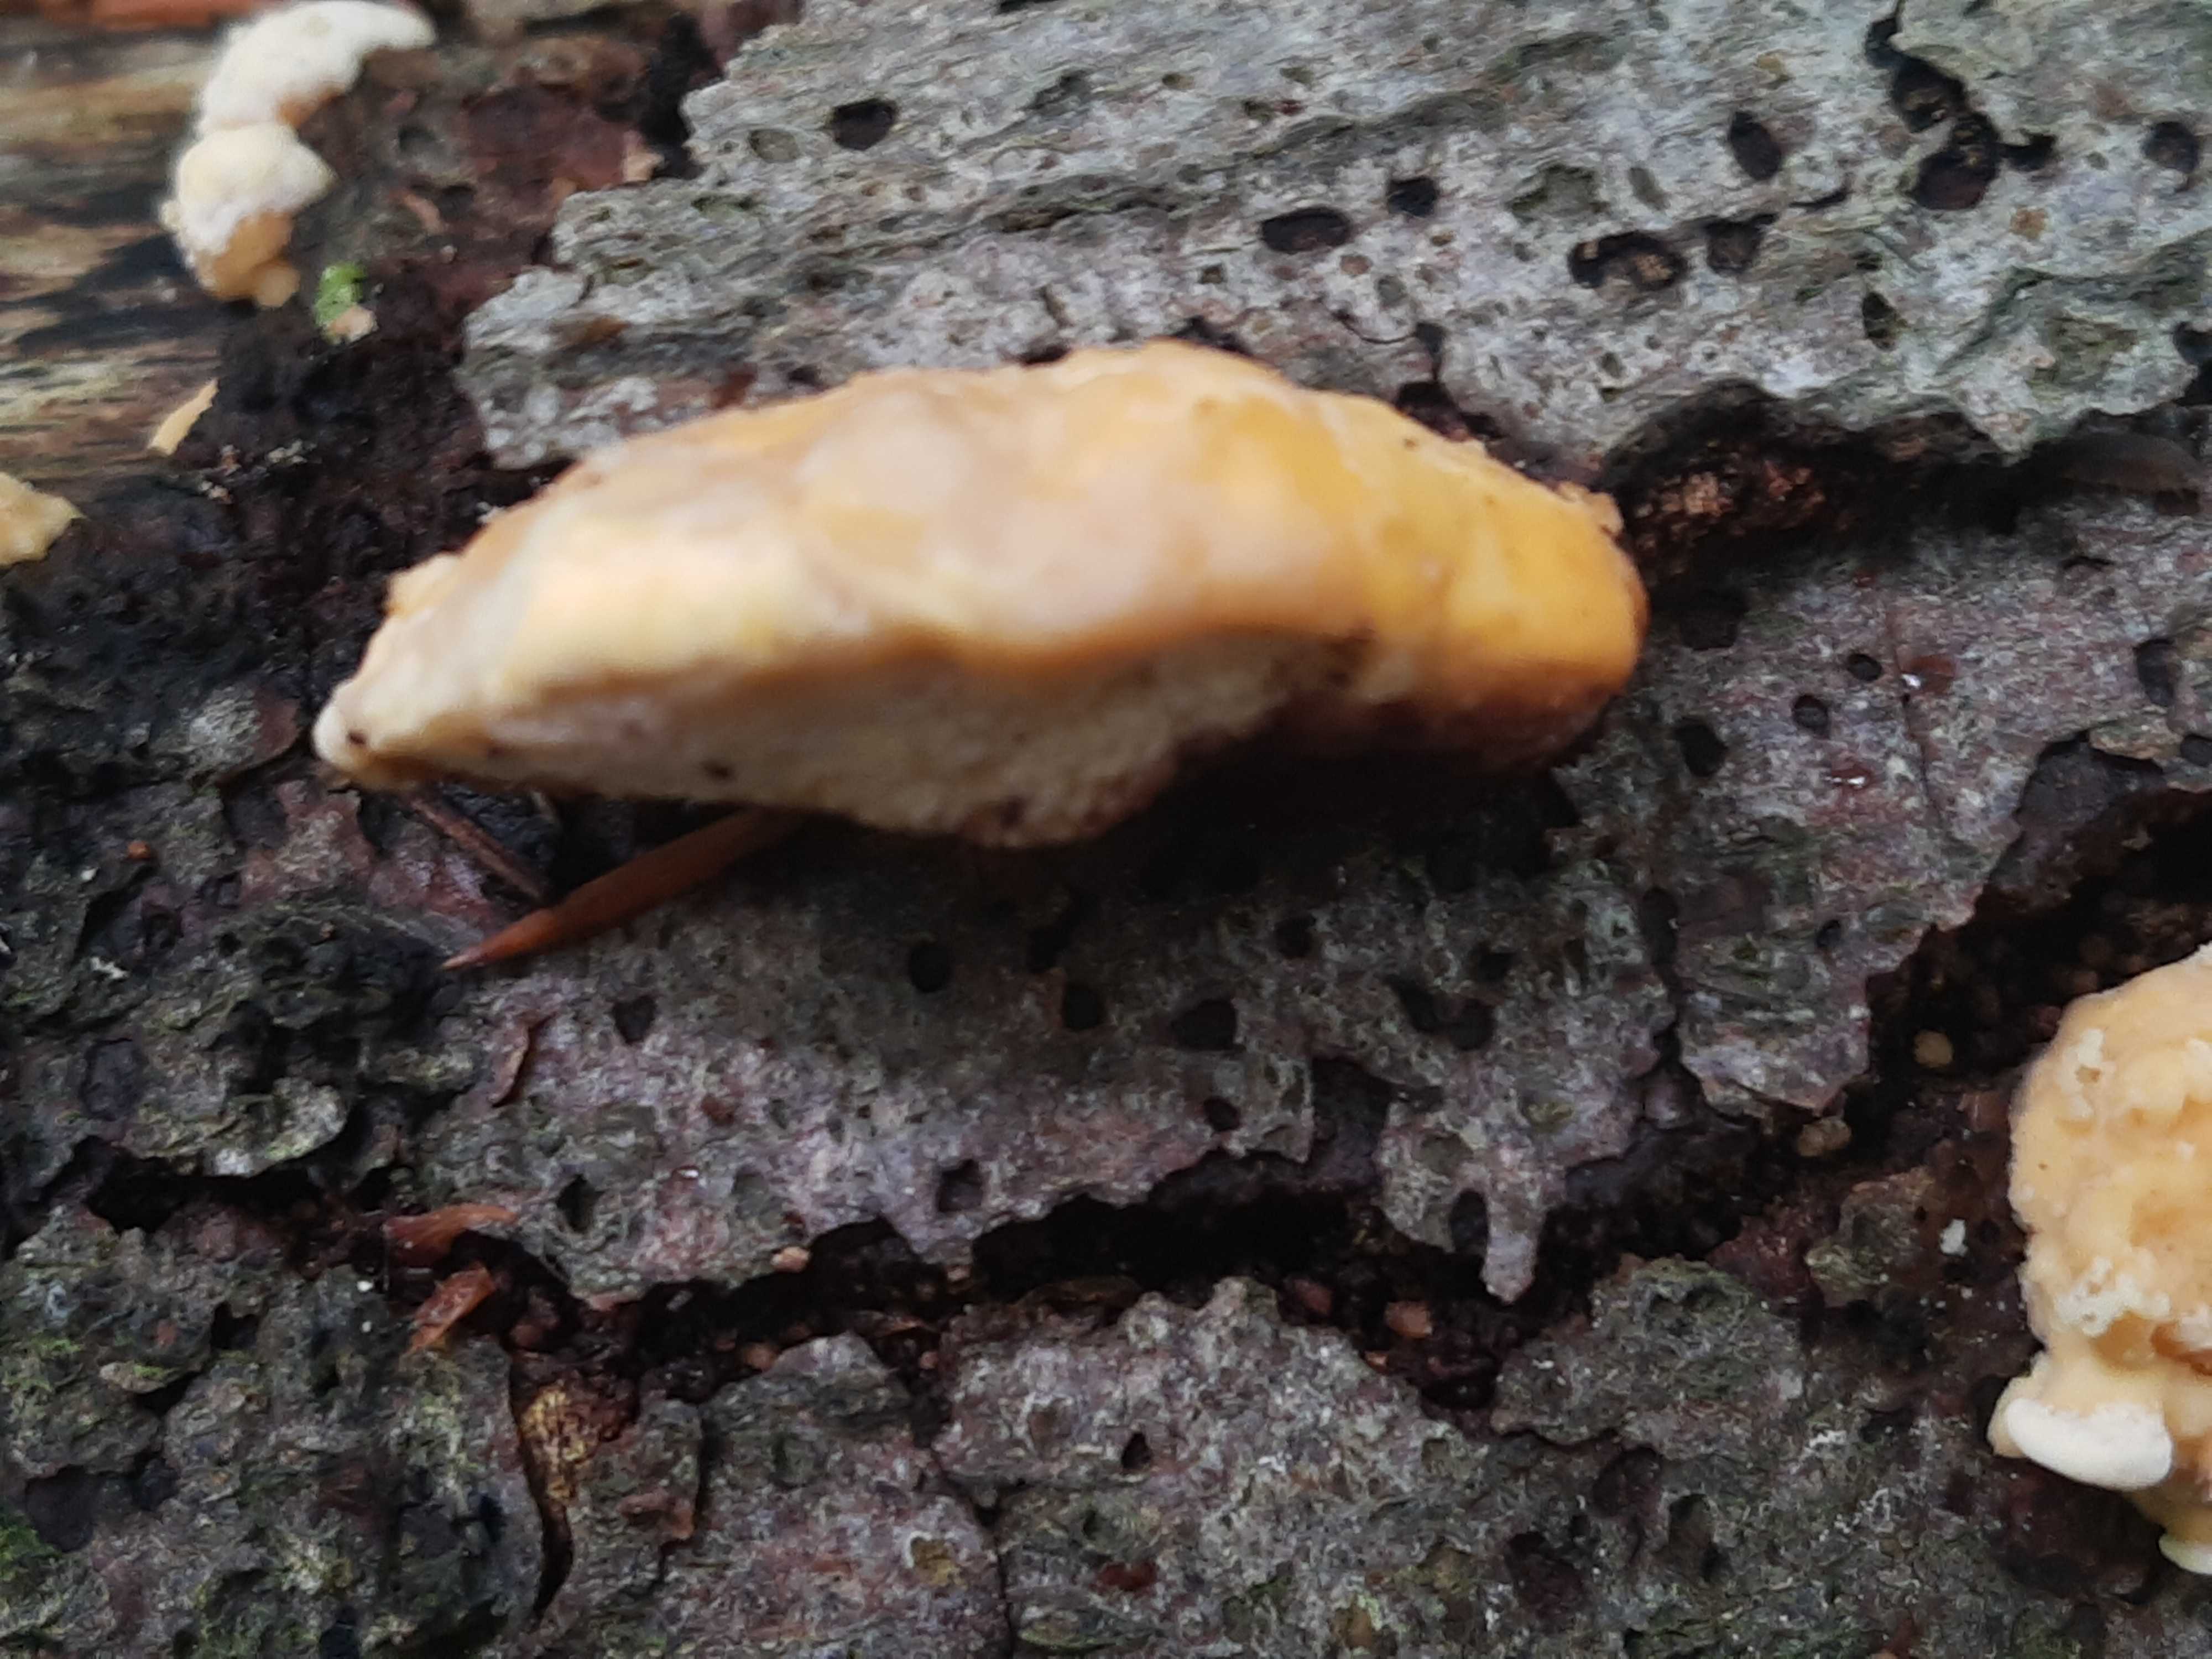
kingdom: Fungi
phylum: Basidiomycota
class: Agaricomycetes
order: Polyporales
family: Steccherinaceae
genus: Antrodiella
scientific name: Antrodiella serpula
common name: gulrandet elastikporesvamp
